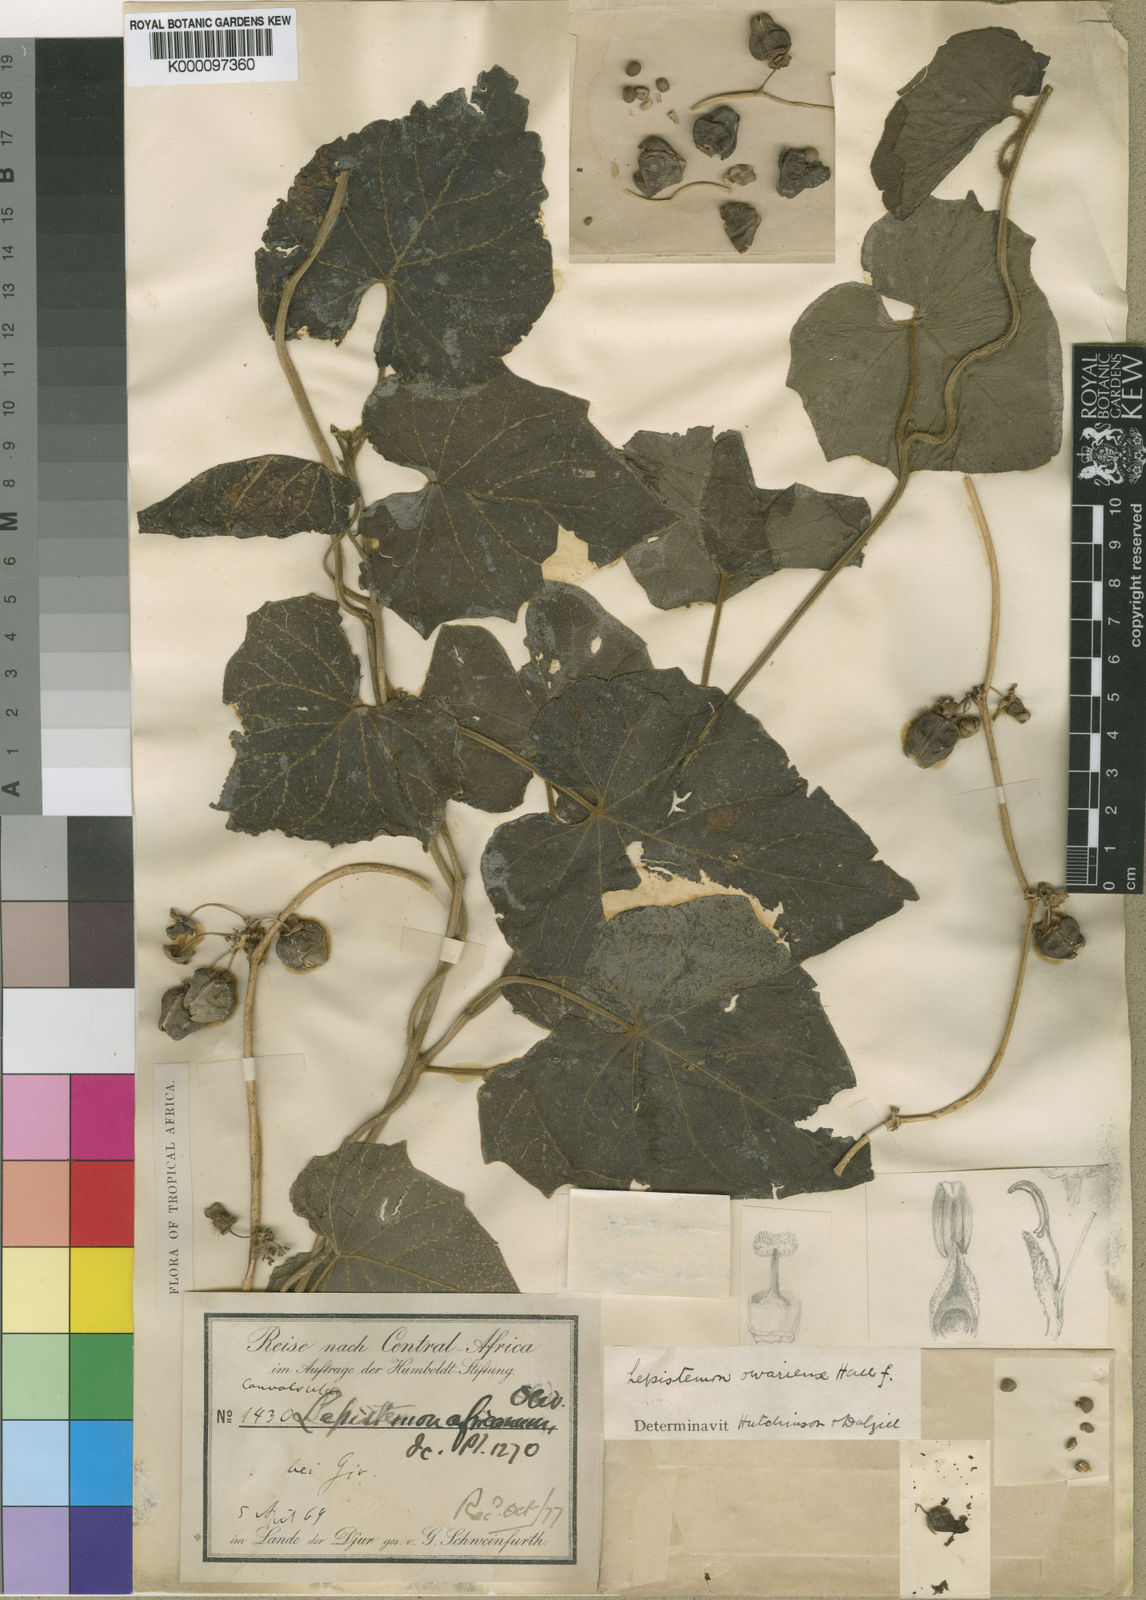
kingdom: Plantae
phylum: Tracheophyta
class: Magnoliopsida
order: Solanales
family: Convolvulaceae
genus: Lepistemon
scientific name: Lepistemon
